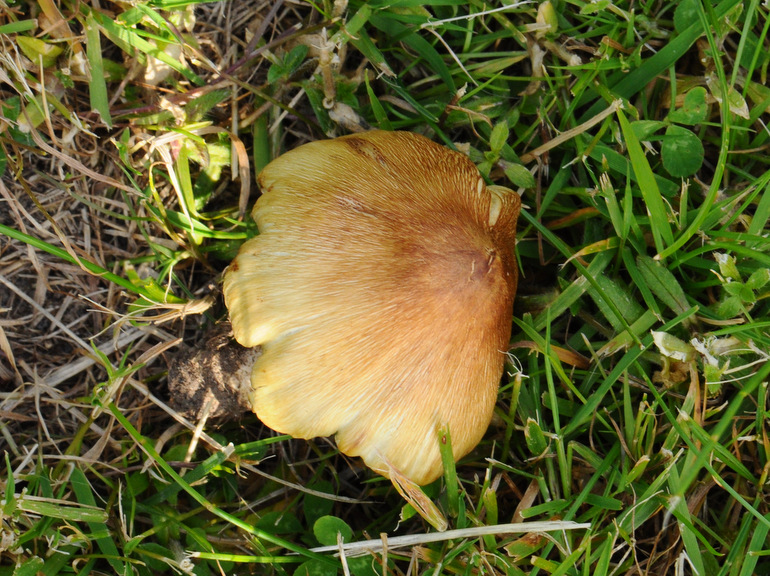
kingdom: Fungi
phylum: Basidiomycota
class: Agaricomycetes
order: Agaricales
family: Inocybaceae
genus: Pseudosperma
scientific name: Pseudosperma flavellum
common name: gul trævlhat
